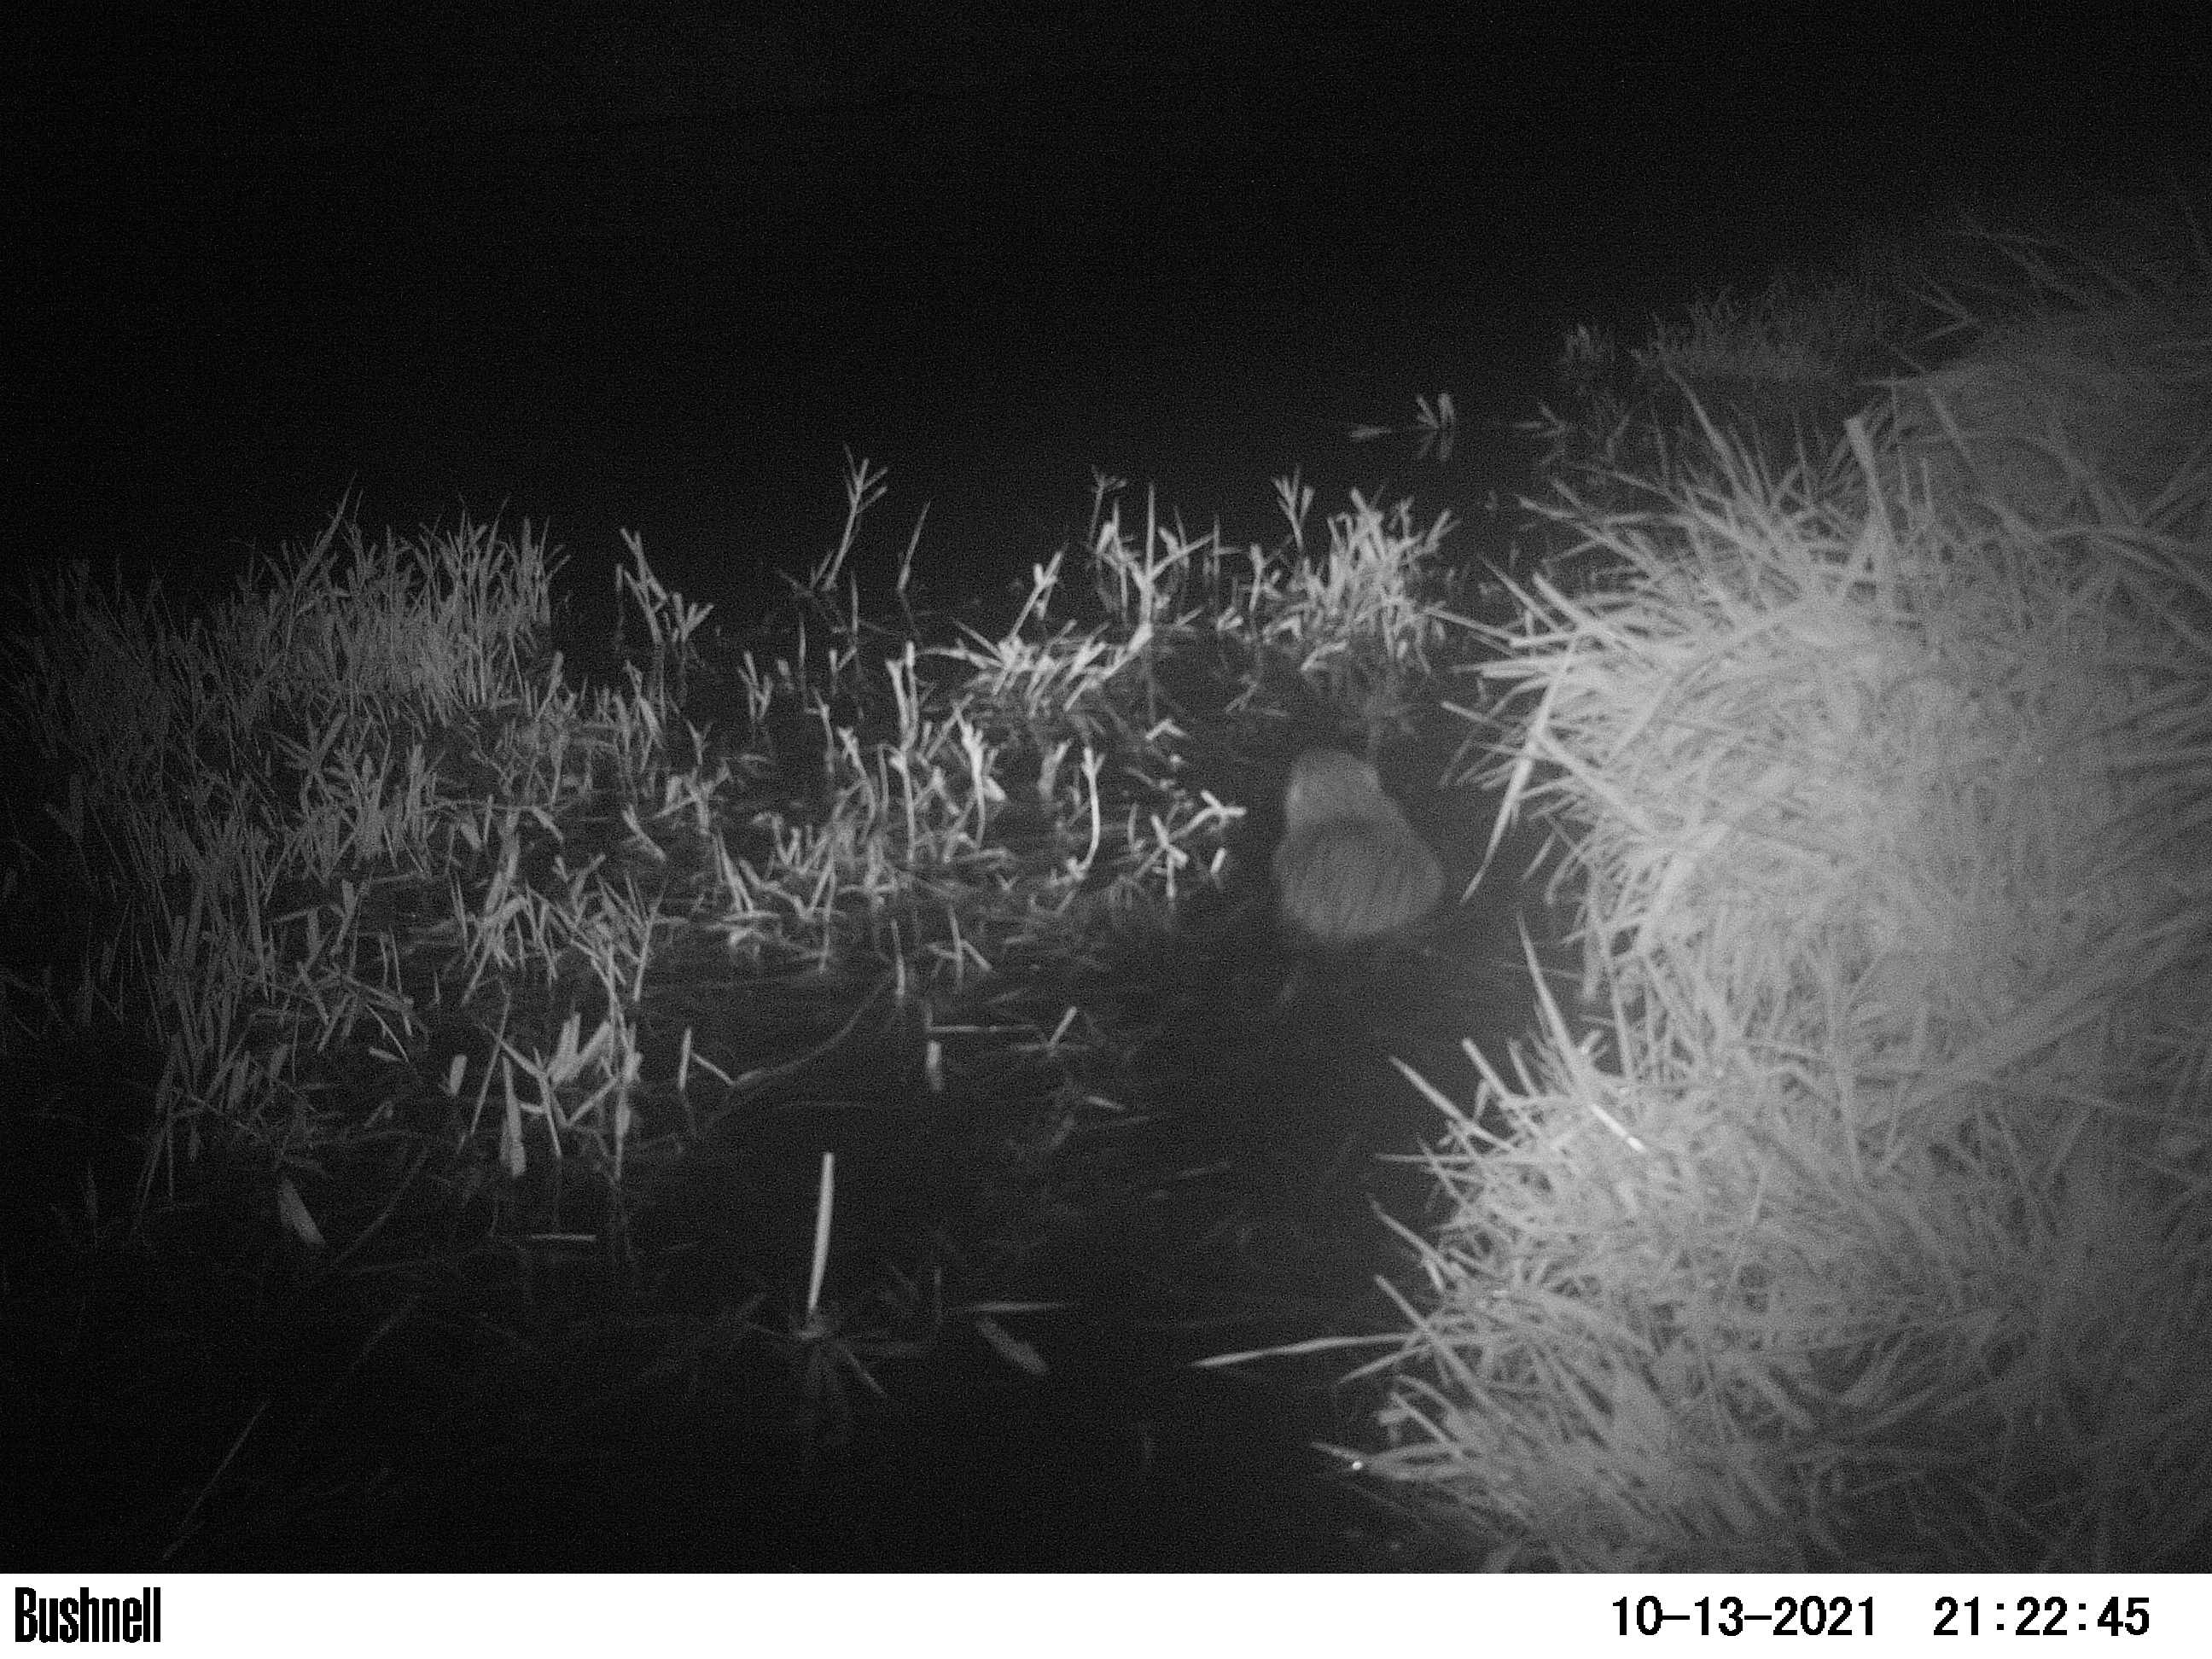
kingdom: Animalia
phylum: Chordata
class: Mammalia
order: Rodentia
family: Cricetidae
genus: Ondatra
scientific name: Ondatra zibethicus
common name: Muskrat
